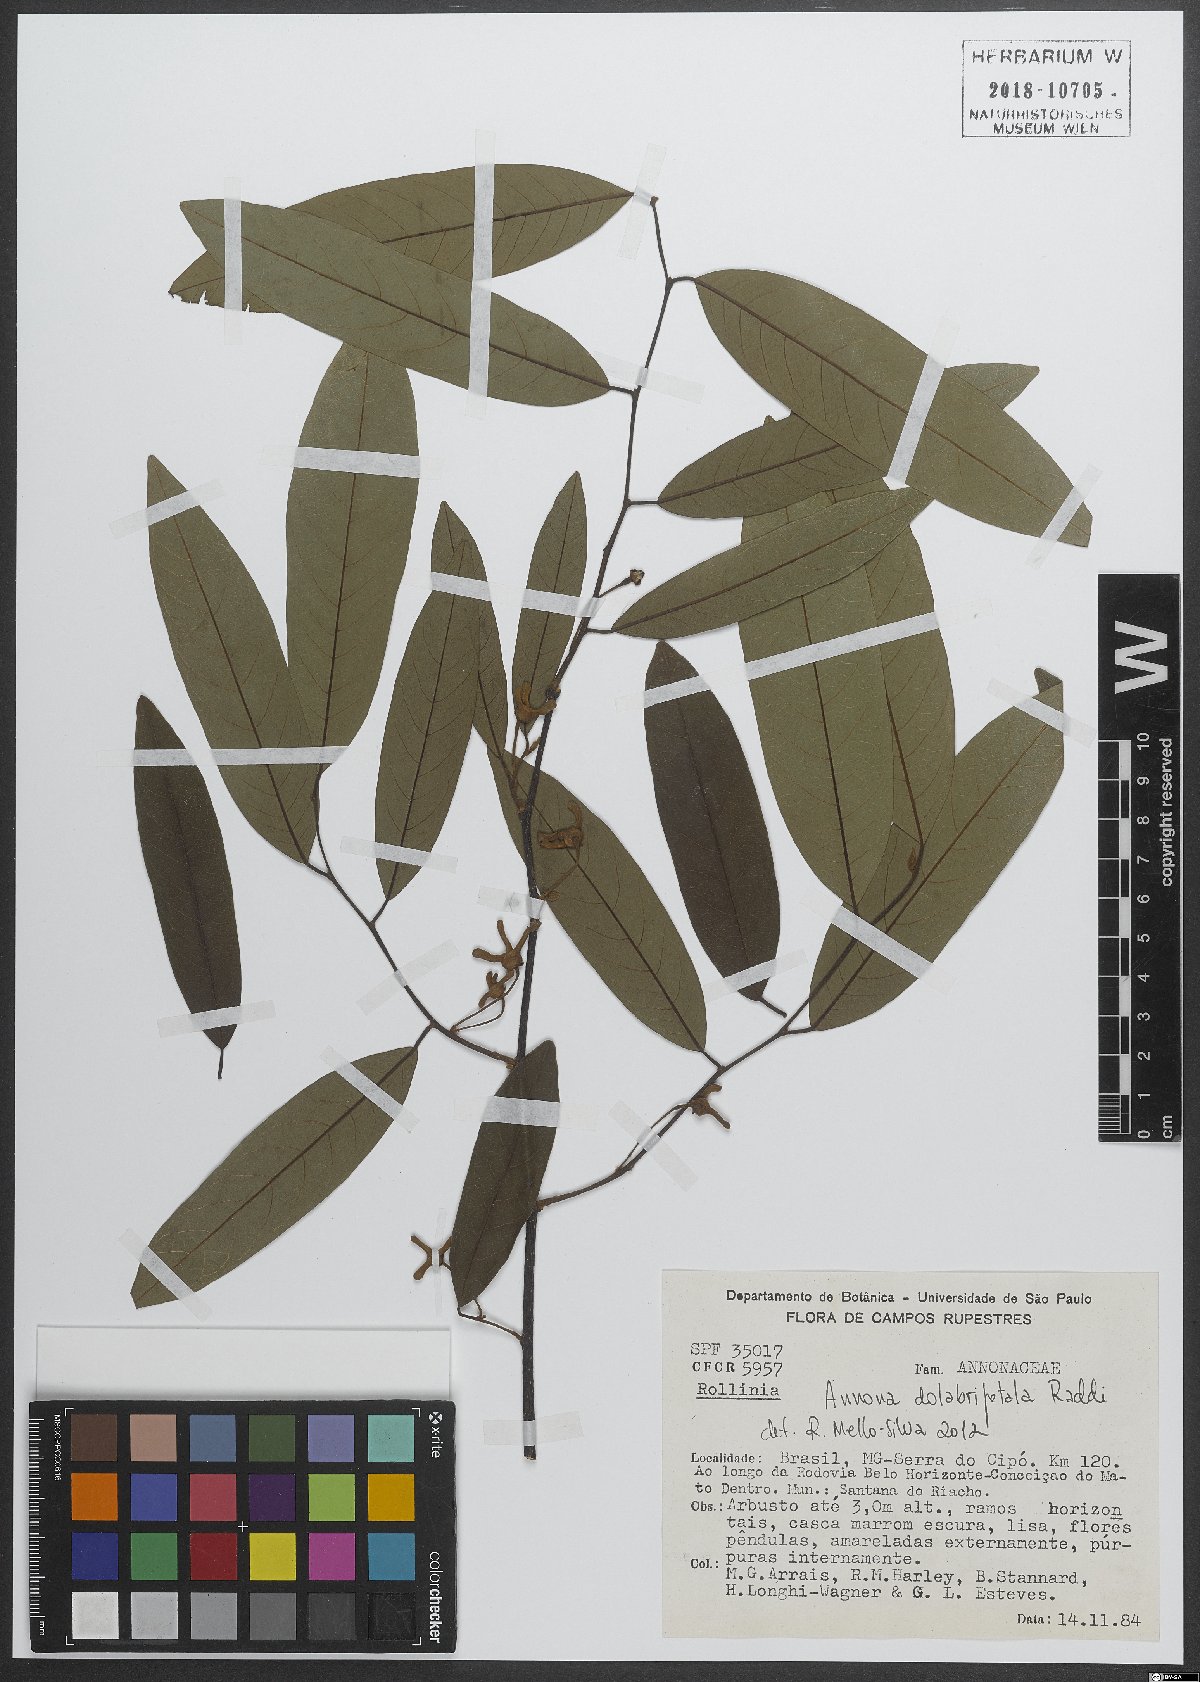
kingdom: Plantae
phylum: Tracheophyta
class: Magnoliopsida
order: Magnoliales
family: Annonaceae
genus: Annona
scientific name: Annona dolabripetala
